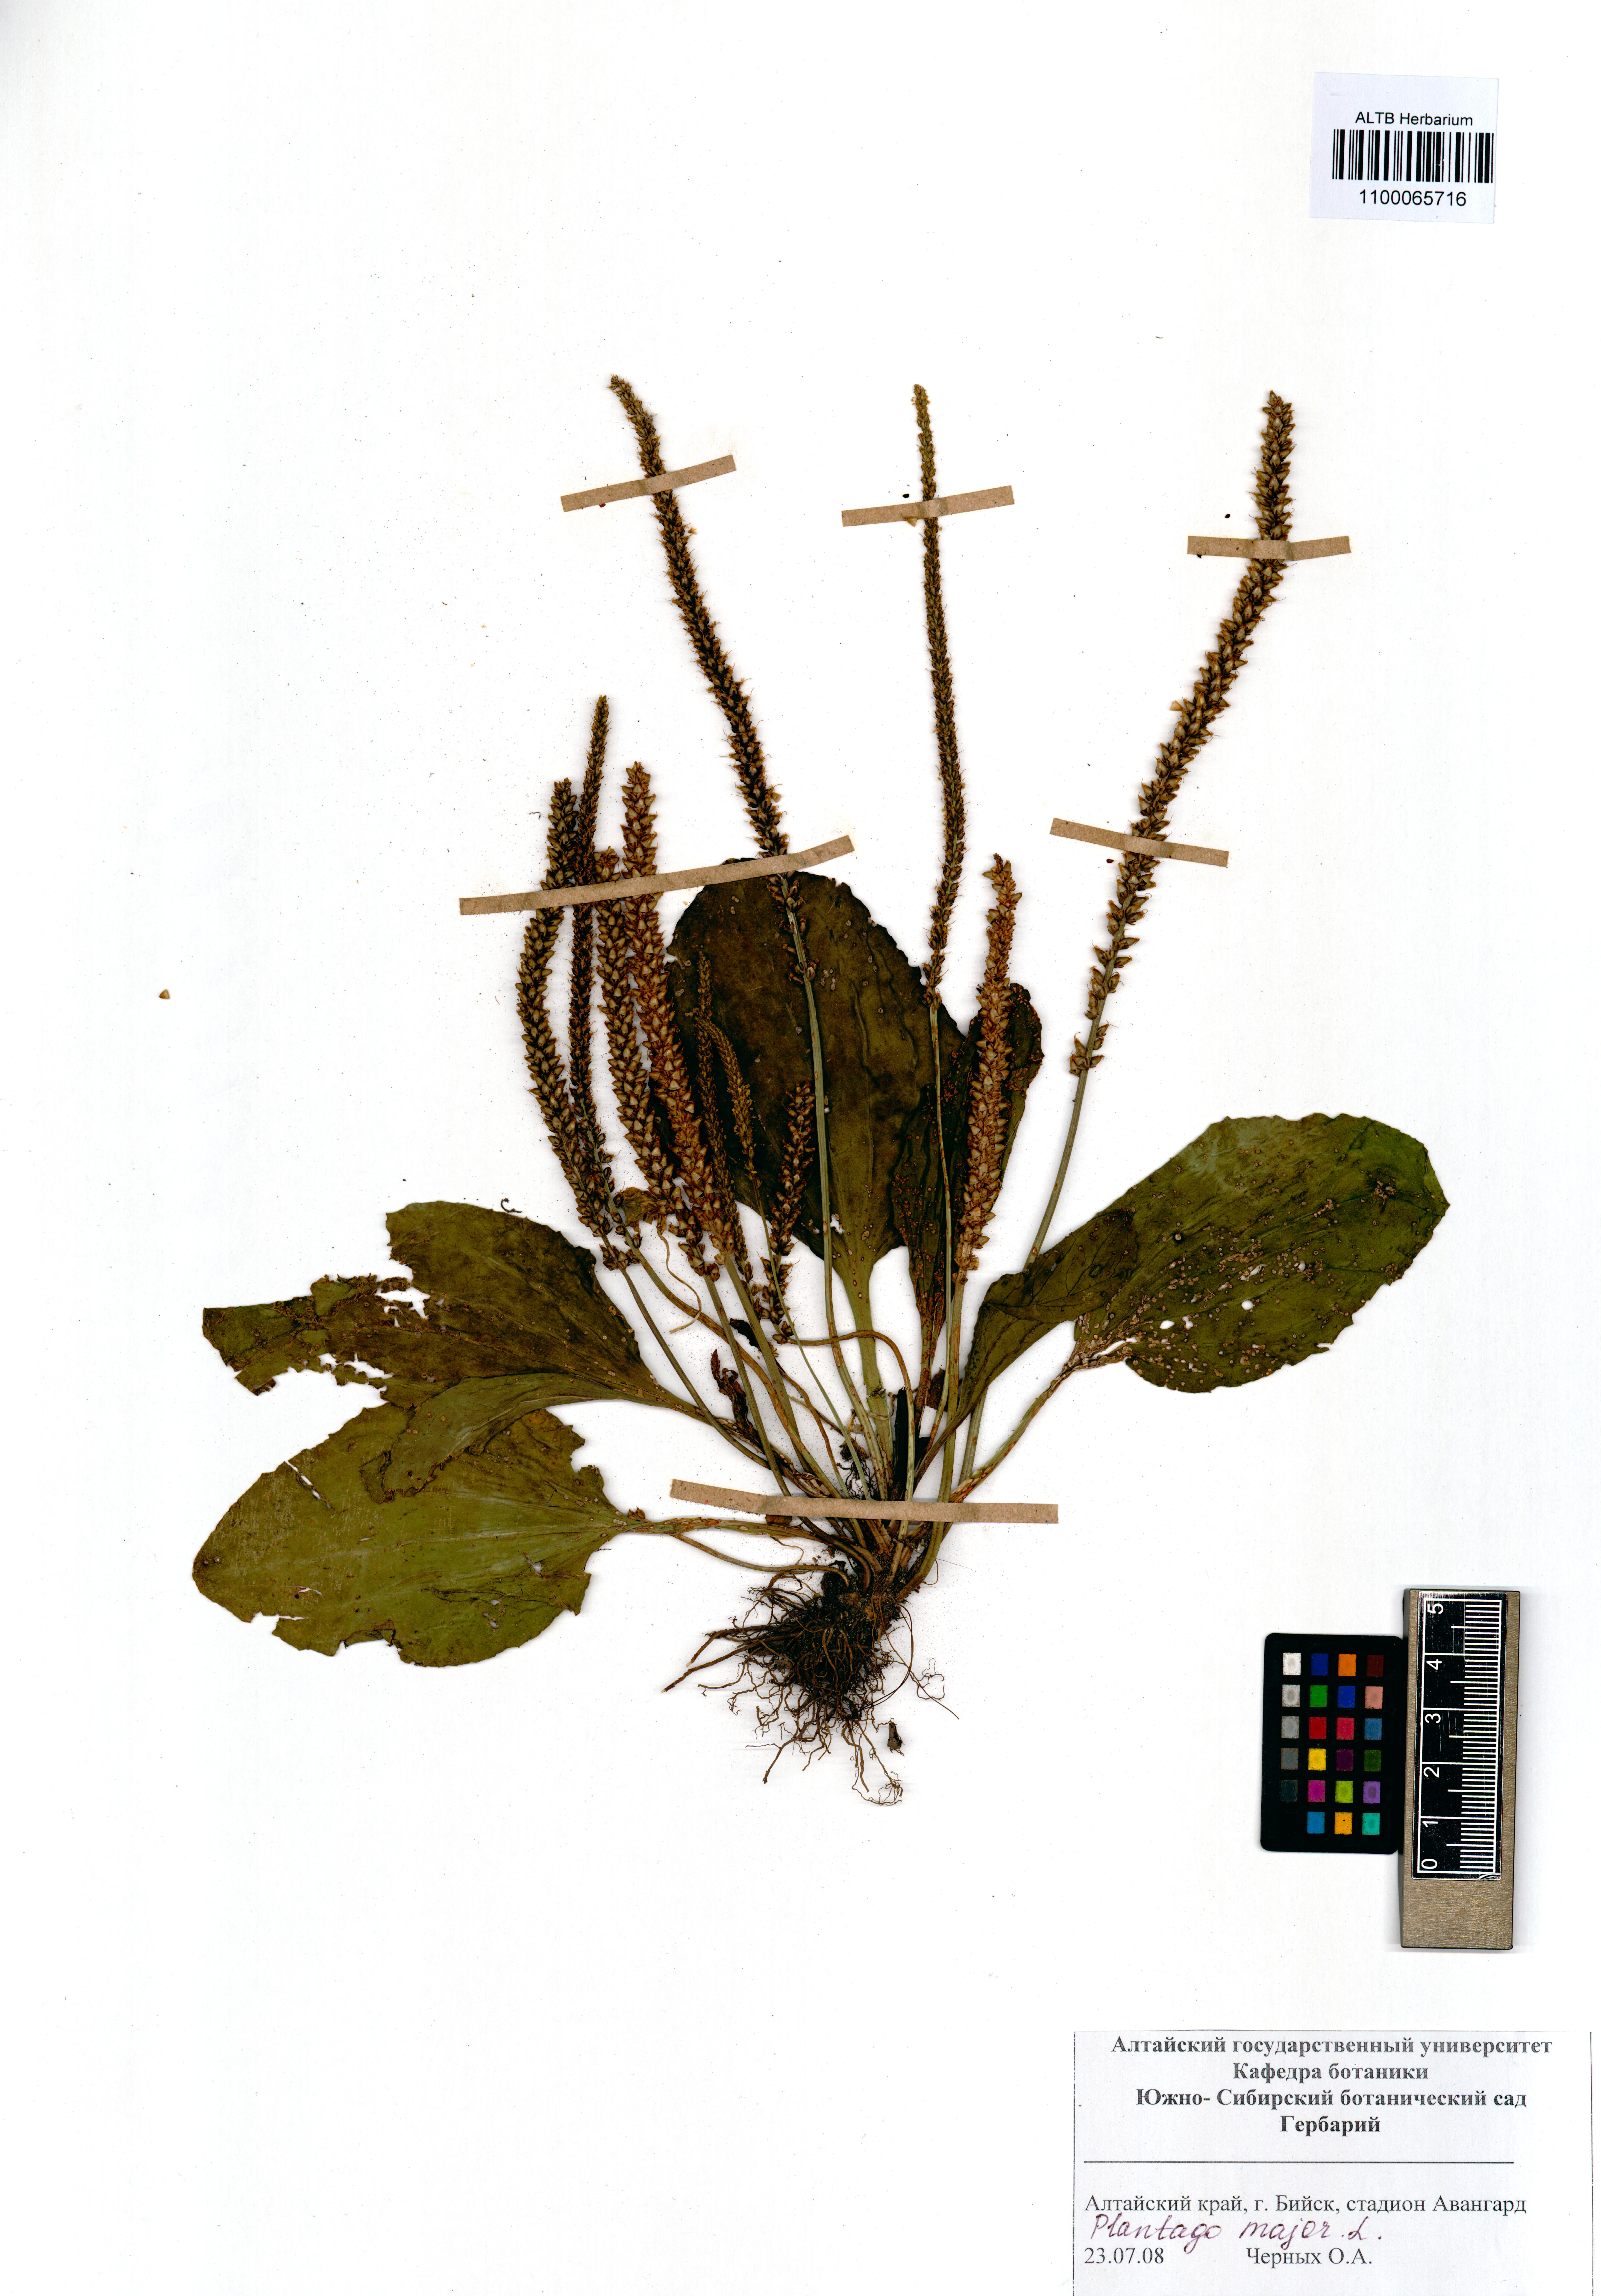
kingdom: Plantae
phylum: Tracheophyta
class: Magnoliopsida
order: Lamiales
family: Plantaginaceae
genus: Plantago
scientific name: Plantago major
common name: Common plantain
